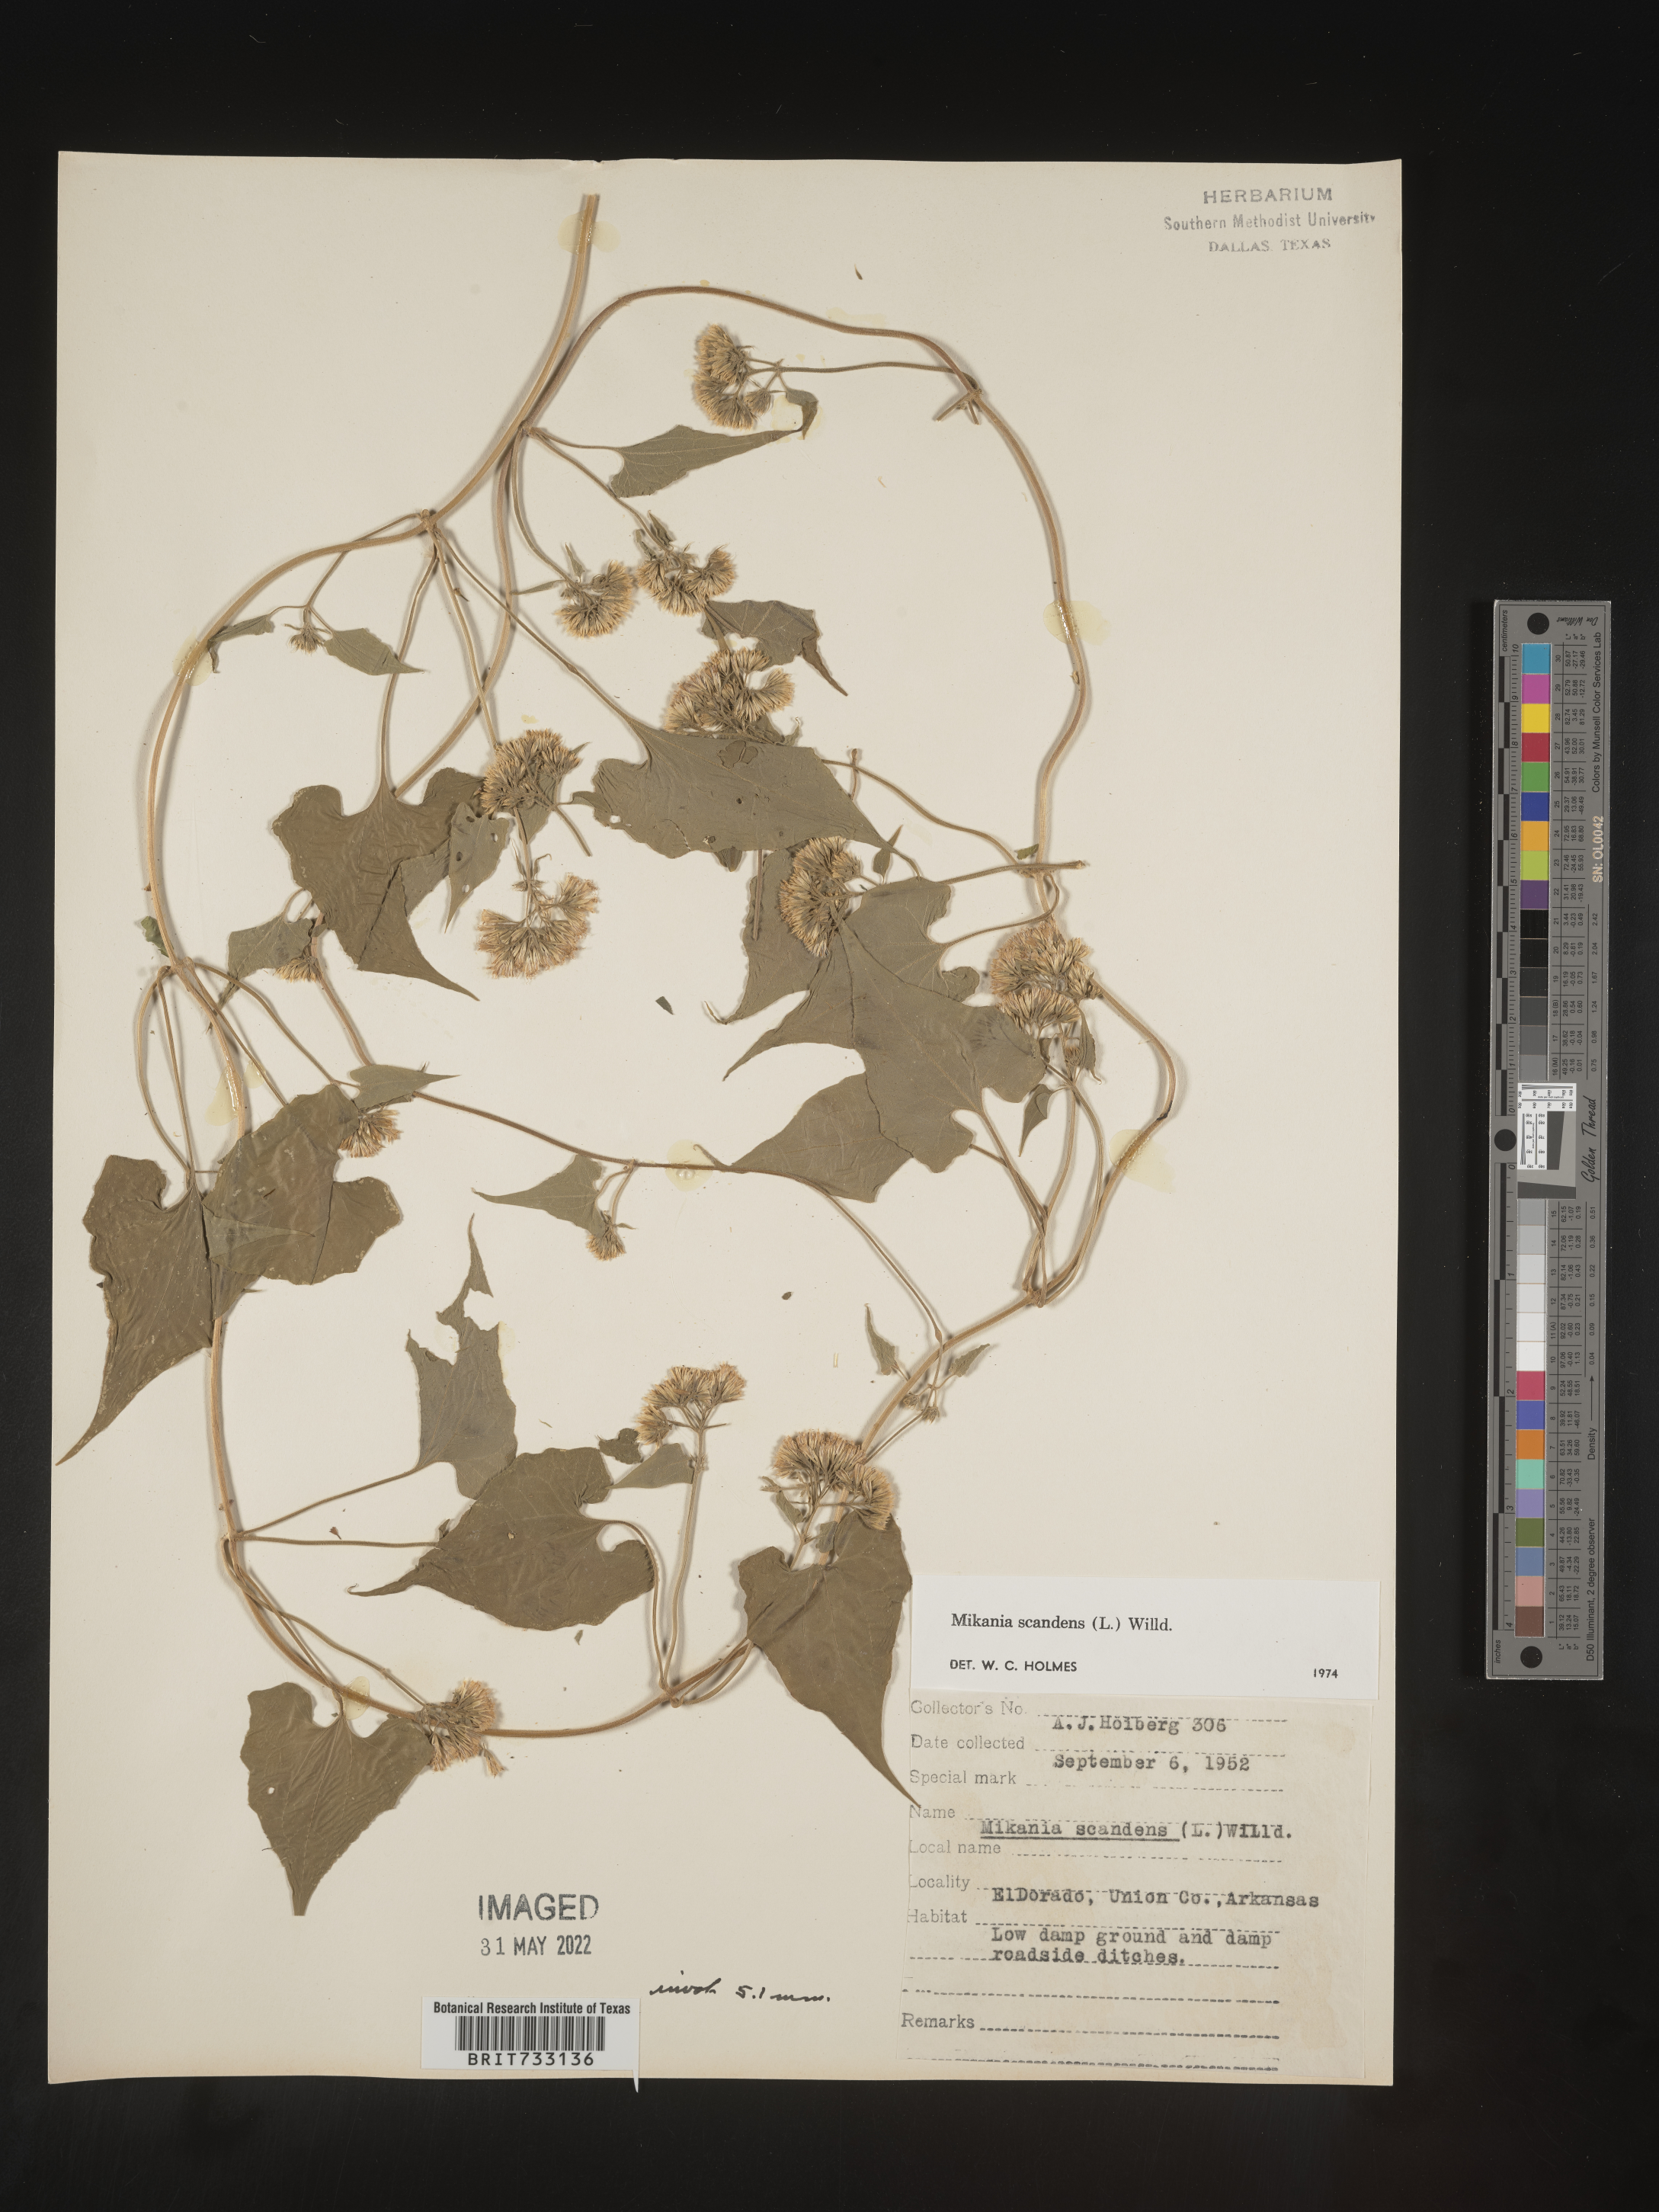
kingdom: Plantae
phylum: Tracheophyta
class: Magnoliopsida
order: Asterales
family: Asteraceae
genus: Mikania
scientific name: Mikania scandens
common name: Climbing hempvine
